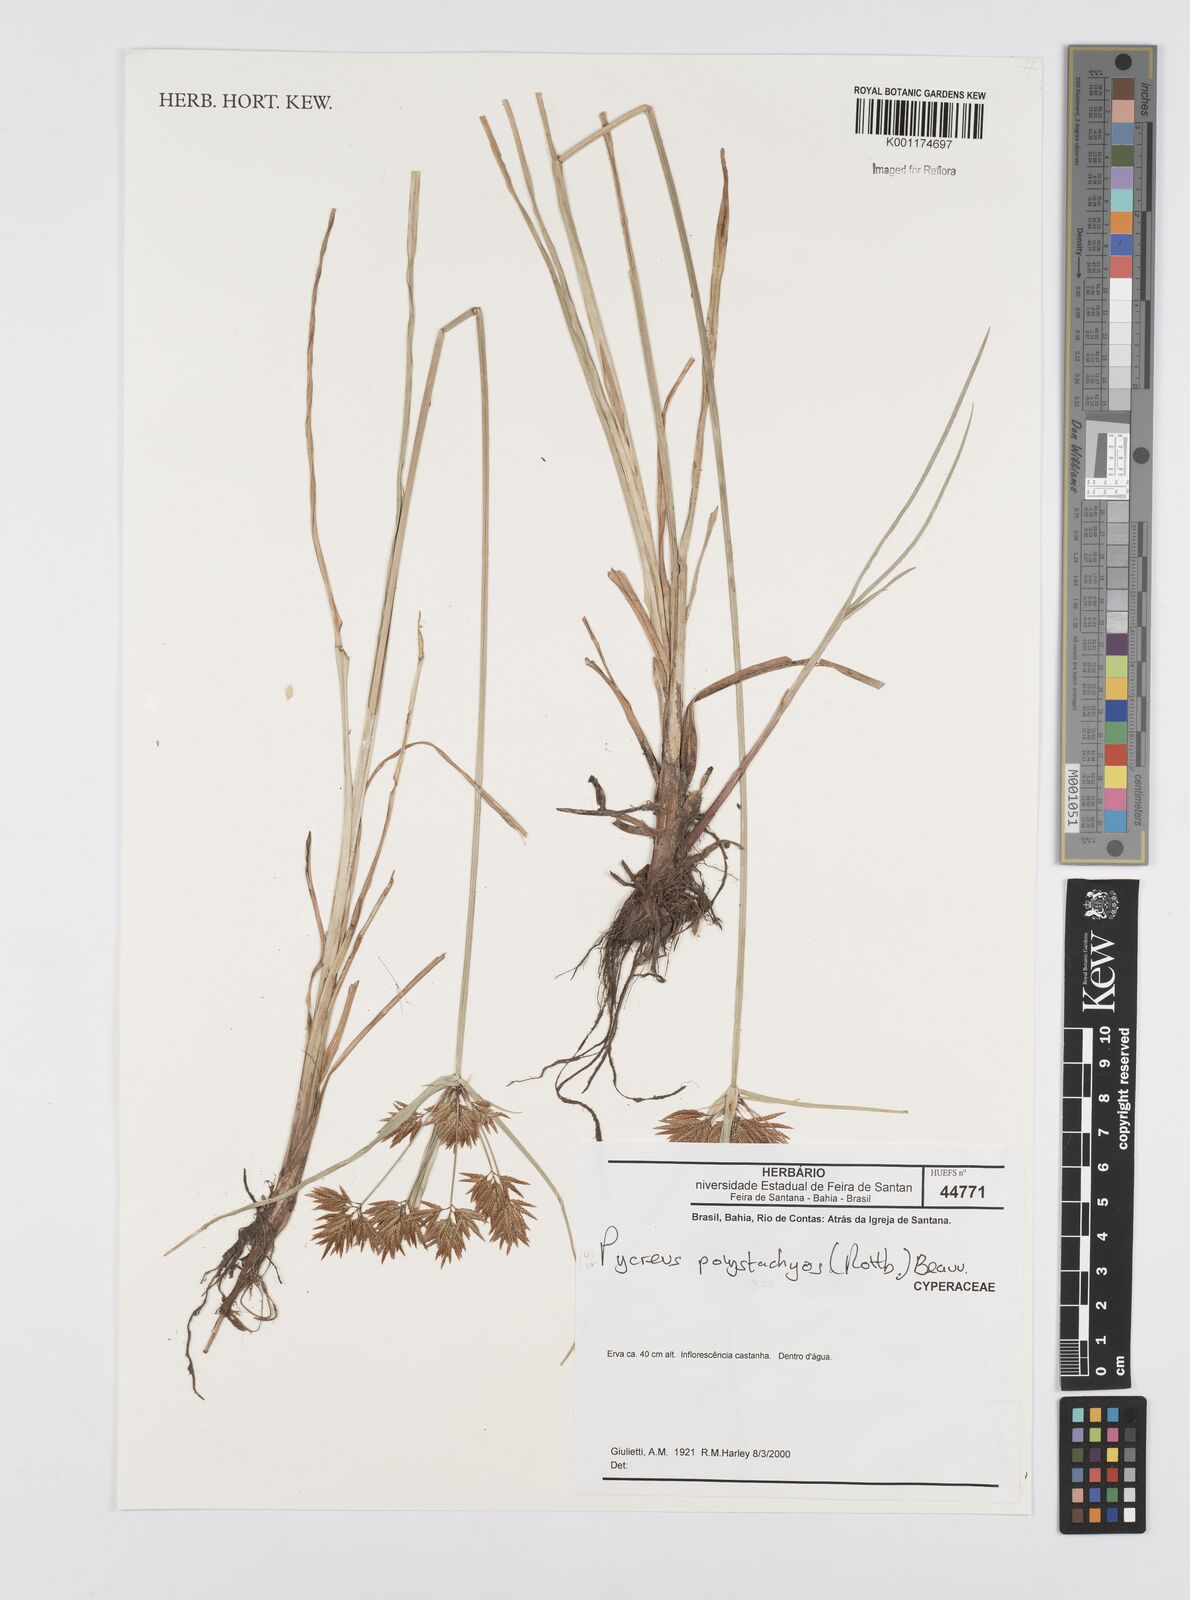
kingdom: Plantae
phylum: Tracheophyta
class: Liliopsida
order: Poales
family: Cyperaceae
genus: Cyperus
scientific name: Cyperus polystachyos
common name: Bunchy flat sedge
